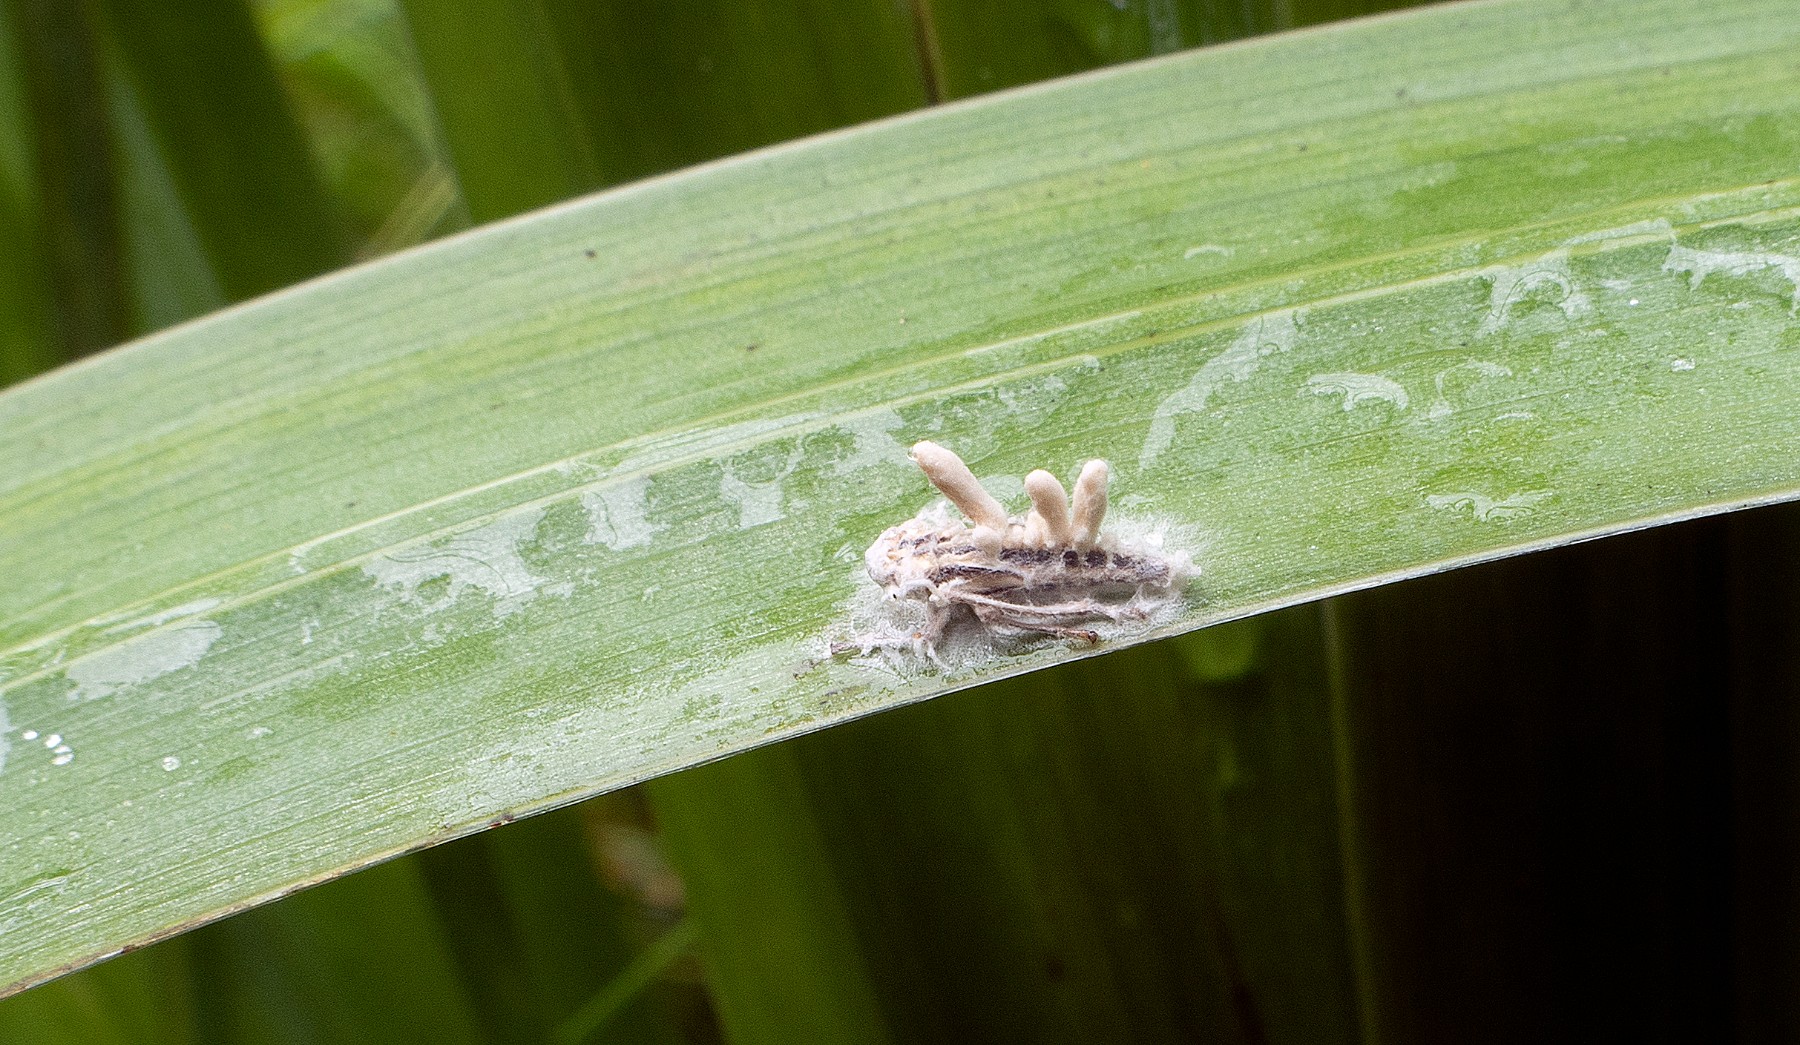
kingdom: Fungi
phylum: Ascomycota
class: Sordariomycetes
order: Hypocreales
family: Ophiocordycipitaceae
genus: Ophiocordyceps
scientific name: Ophiocordyceps
